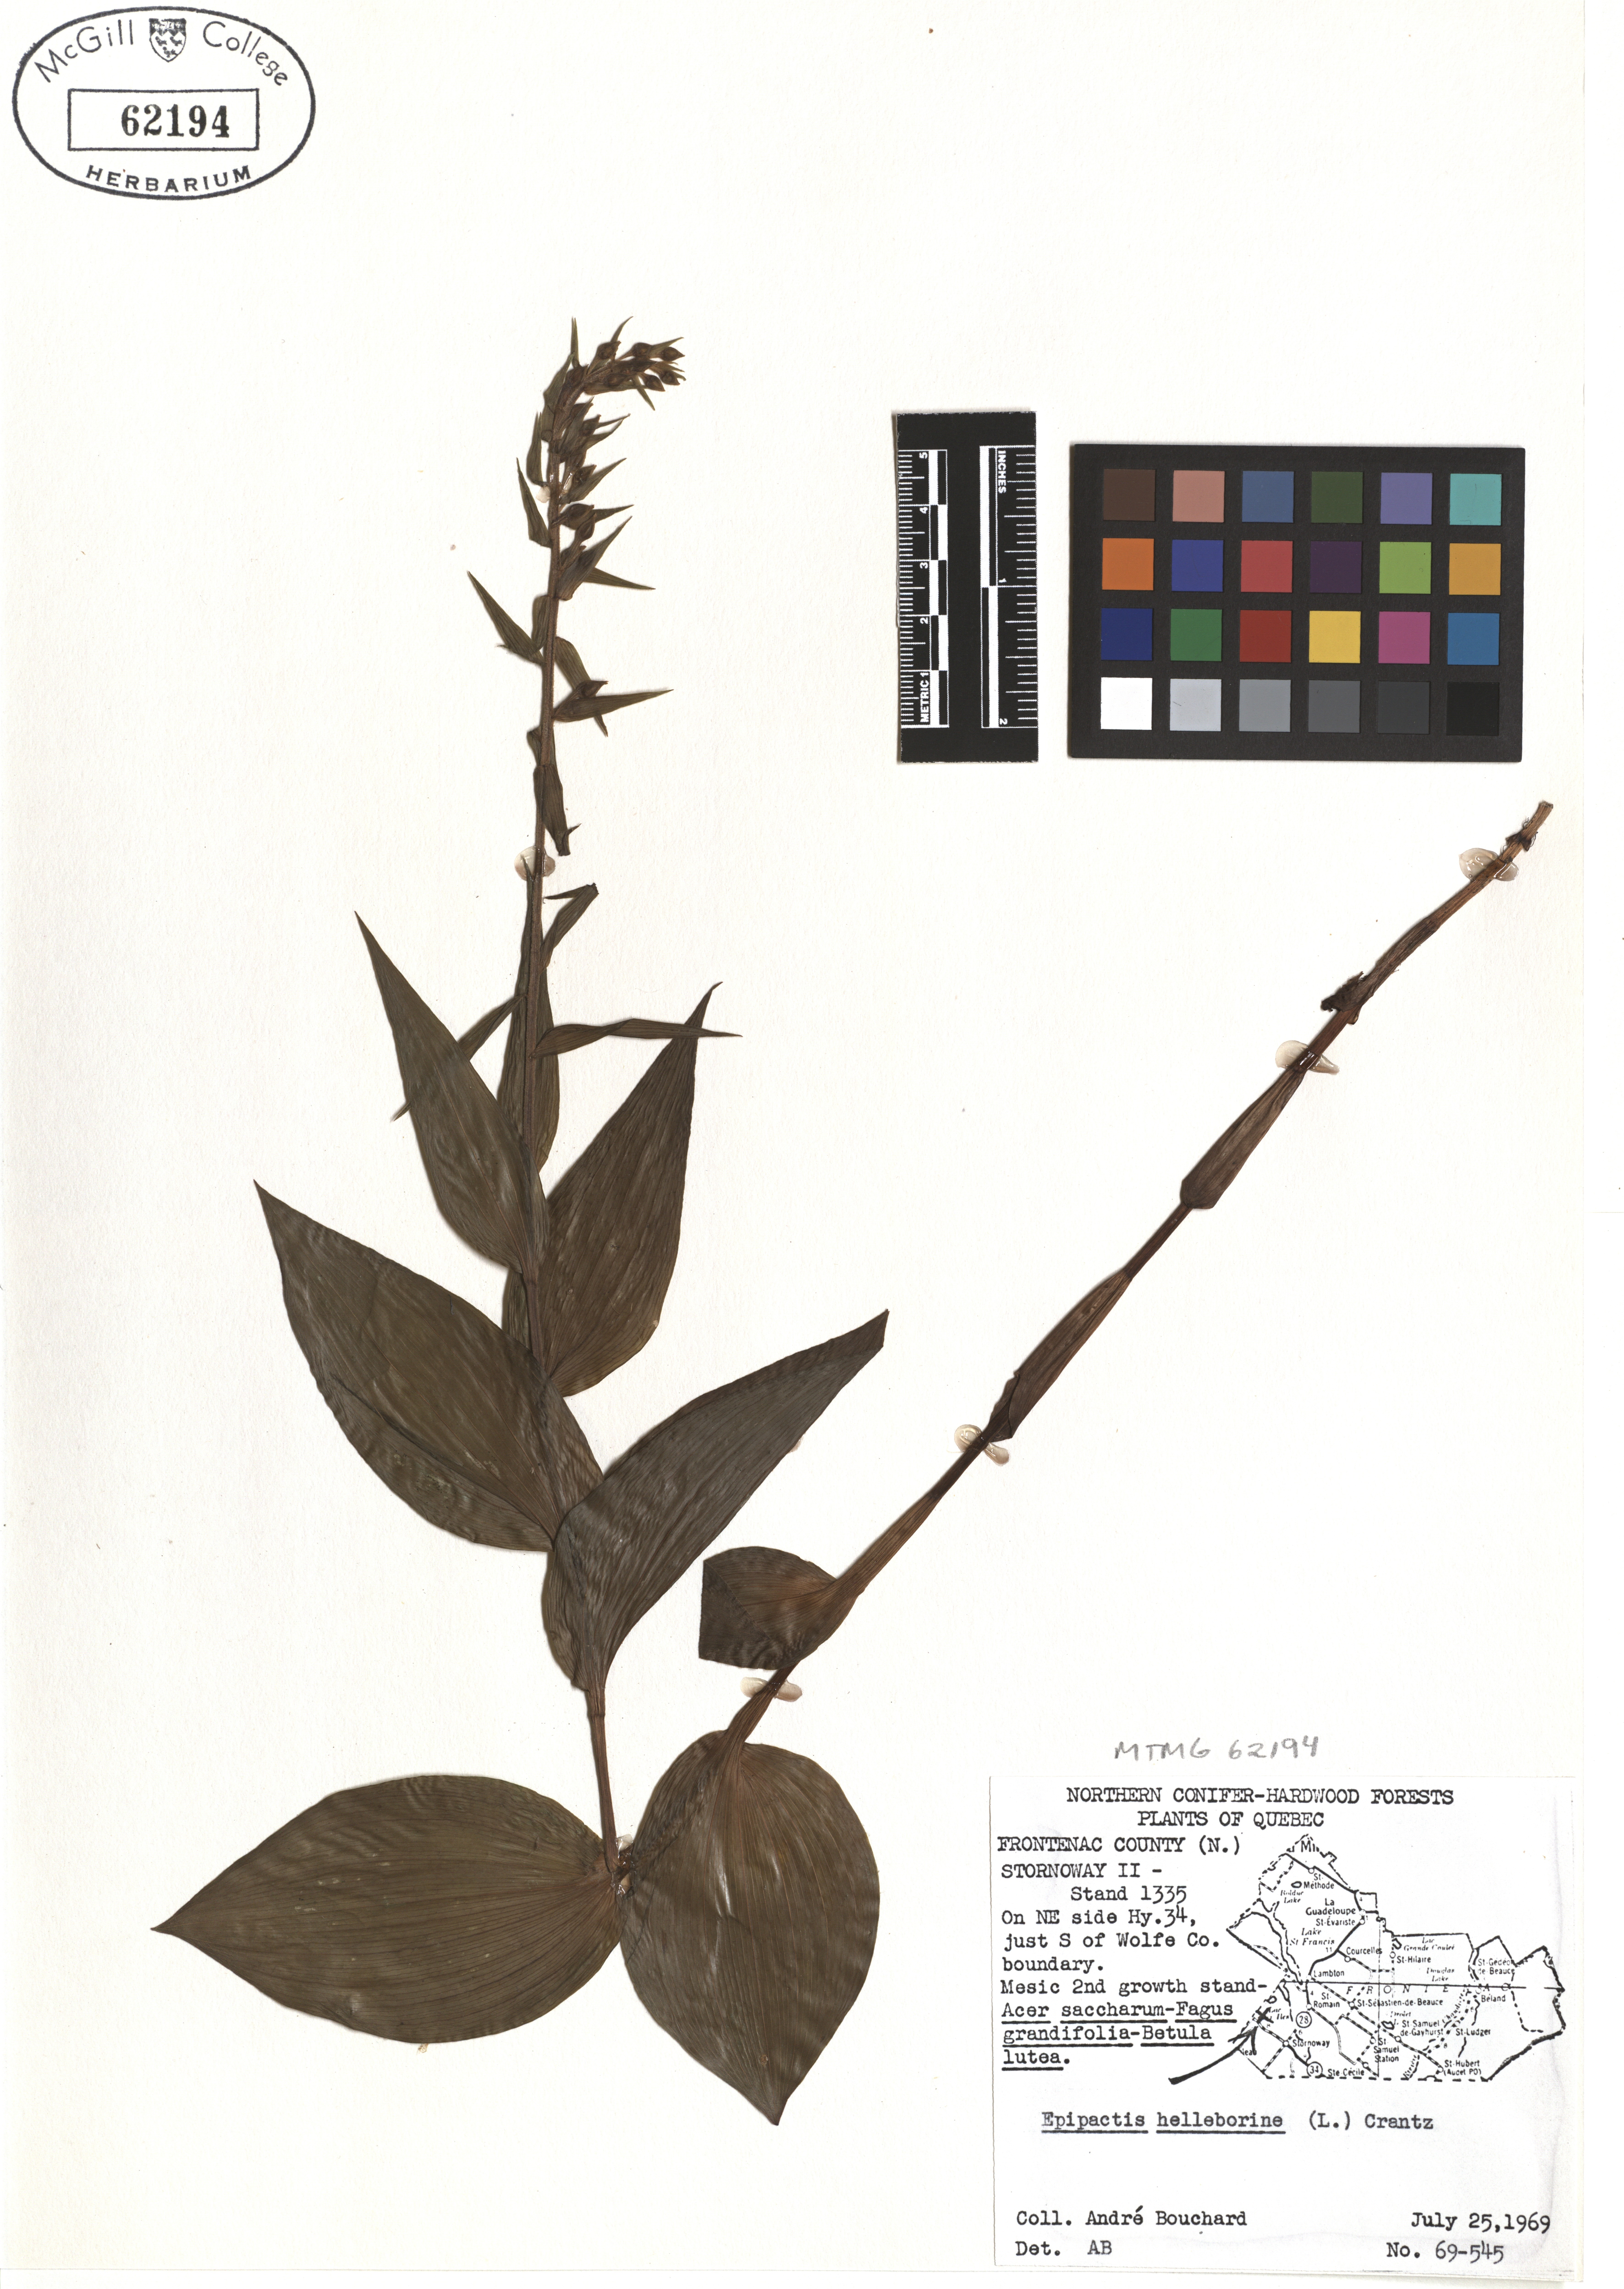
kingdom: Plantae
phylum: Tracheophyta
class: Liliopsida
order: Asparagales
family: Orchidaceae
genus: Epipactis
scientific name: Epipactis helleborine
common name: Broad-leaved helleborine
